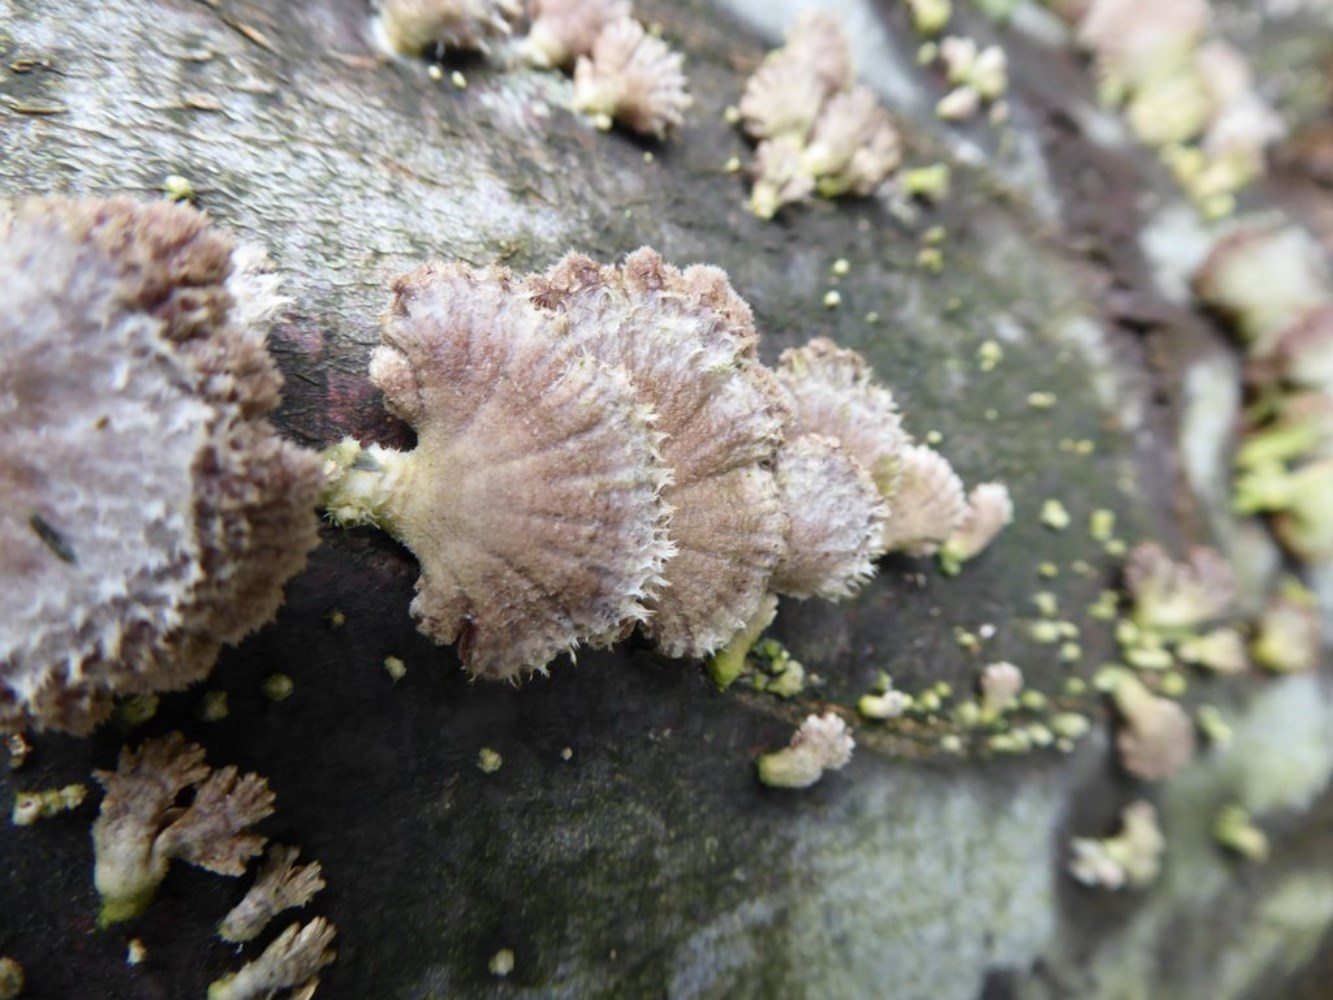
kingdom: Fungi
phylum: Basidiomycota
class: Agaricomycetes
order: Agaricales
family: Schizophyllaceae
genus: Schizophyllum
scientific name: Schizophyllum commune
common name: kløvblad
